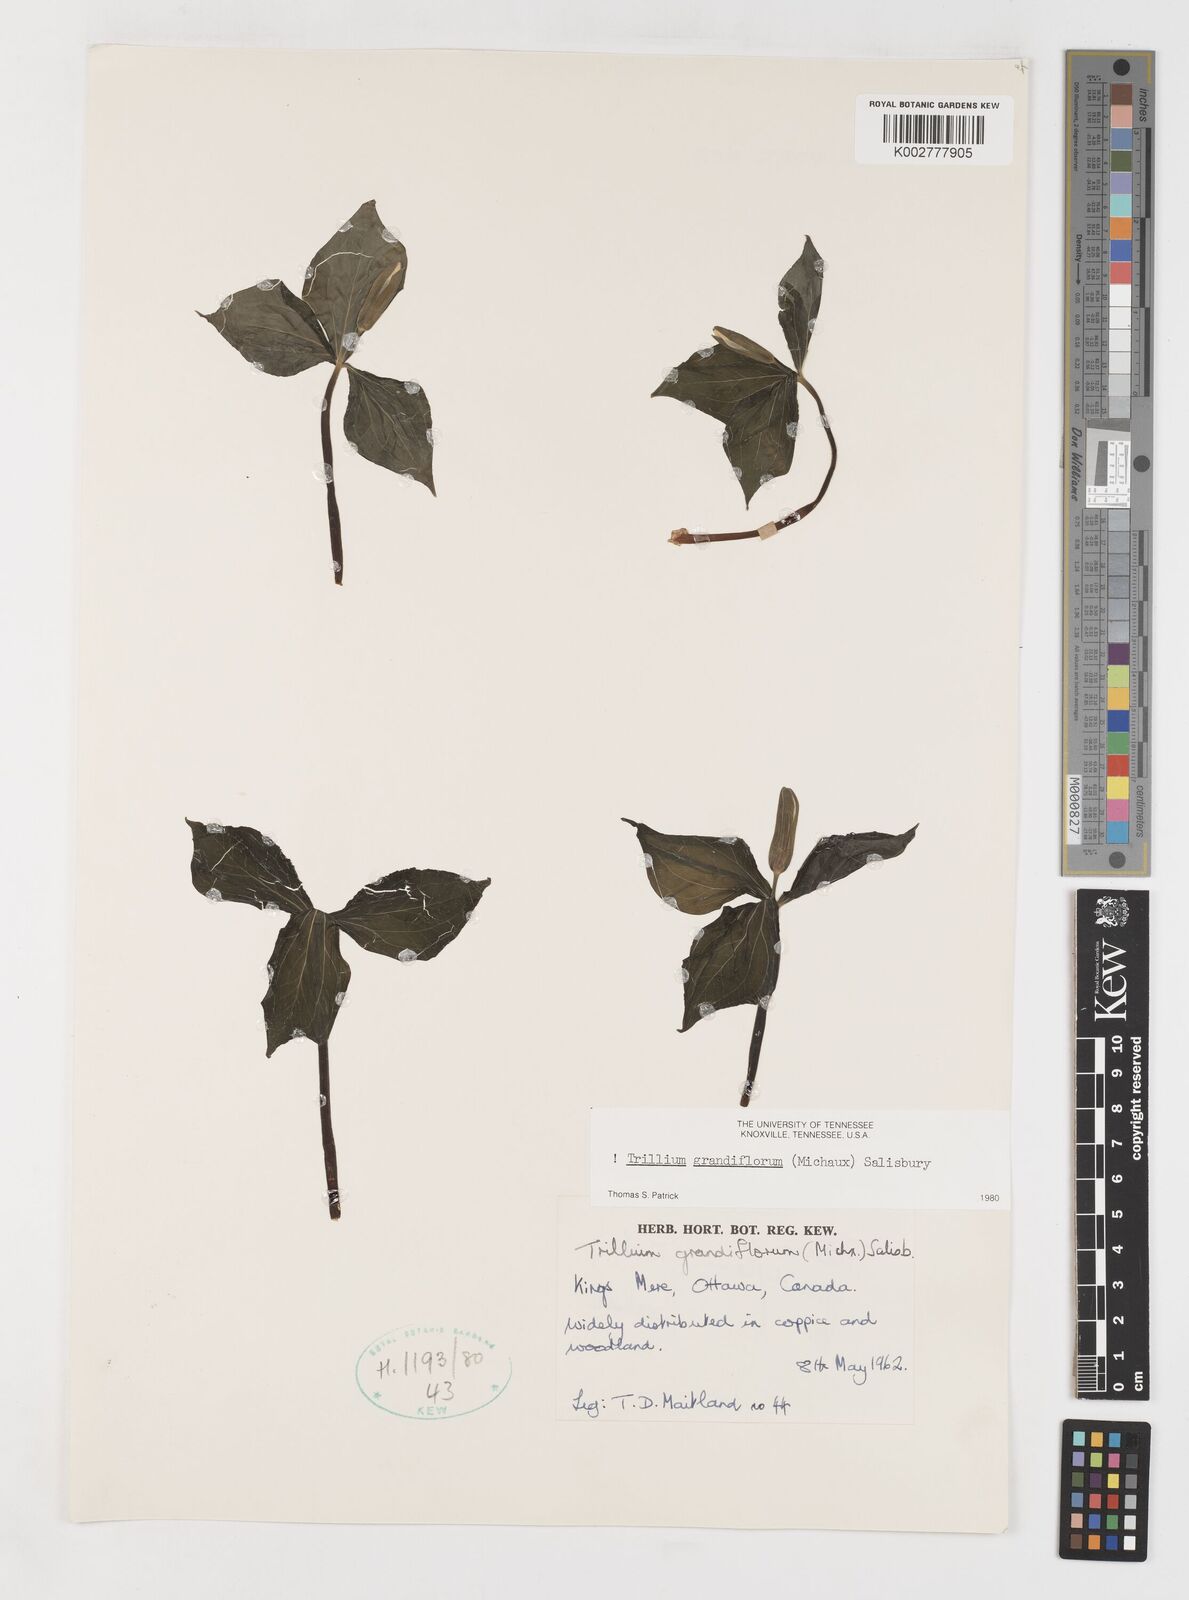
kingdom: Plantae
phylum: Tracheophyta
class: Liliopsida
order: Liliales
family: Melanthiaceae
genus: Trillium
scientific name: Trillium grandiflorum
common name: Great white trillium
